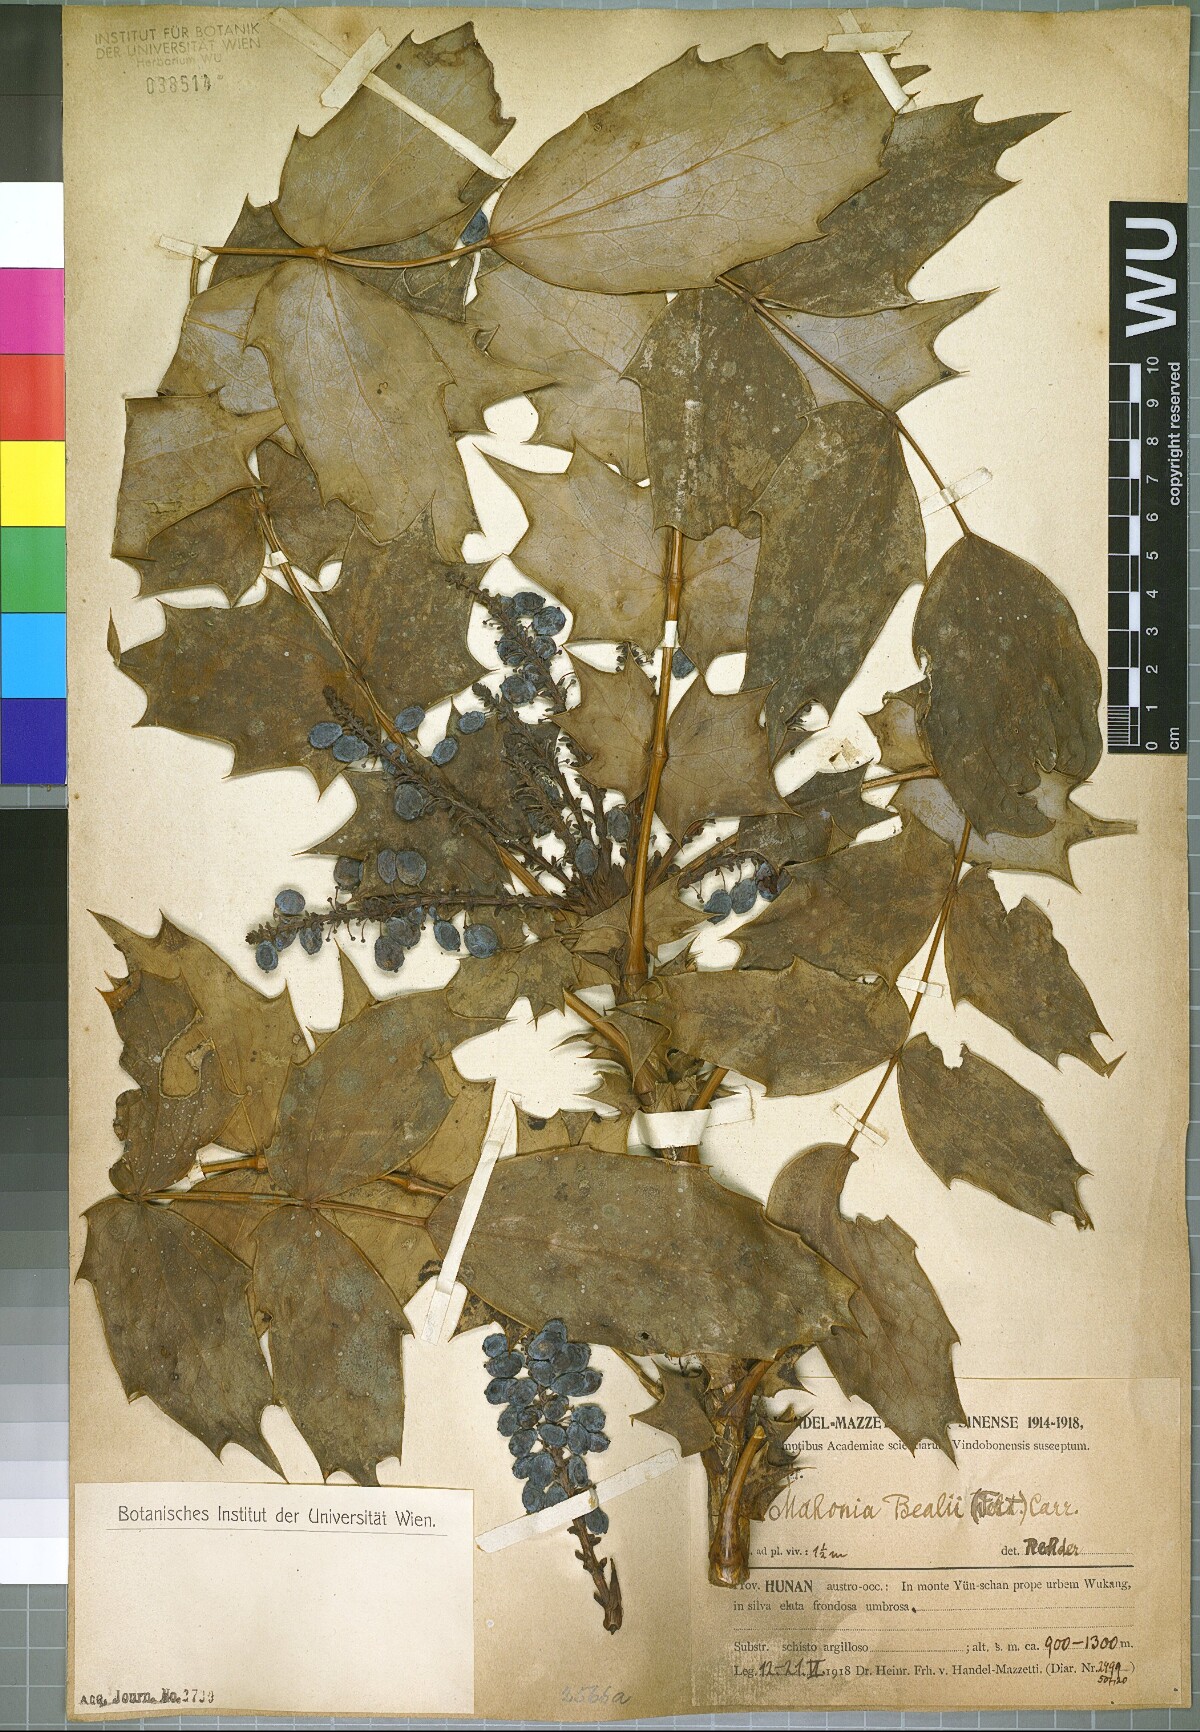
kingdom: Plantae
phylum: Tracheophyta
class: Magnoliopsida
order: Ranunculales
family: Berberidaceae
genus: Mahonia
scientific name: Mahonia bealei
